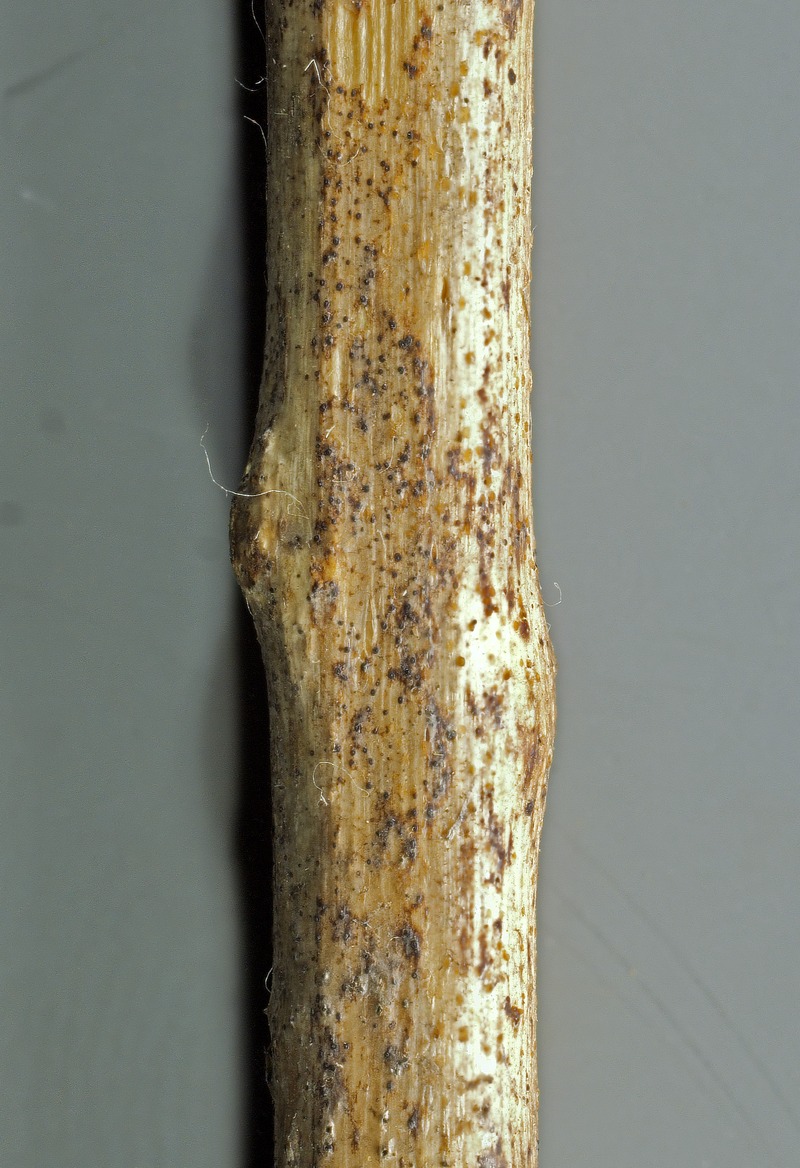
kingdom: Fungi
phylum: Ascomycota
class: Leotiomycetes
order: Helotiales
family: Dermateaceae
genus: Phragmonaevia
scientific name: Phragmonaevia galeopsidis
